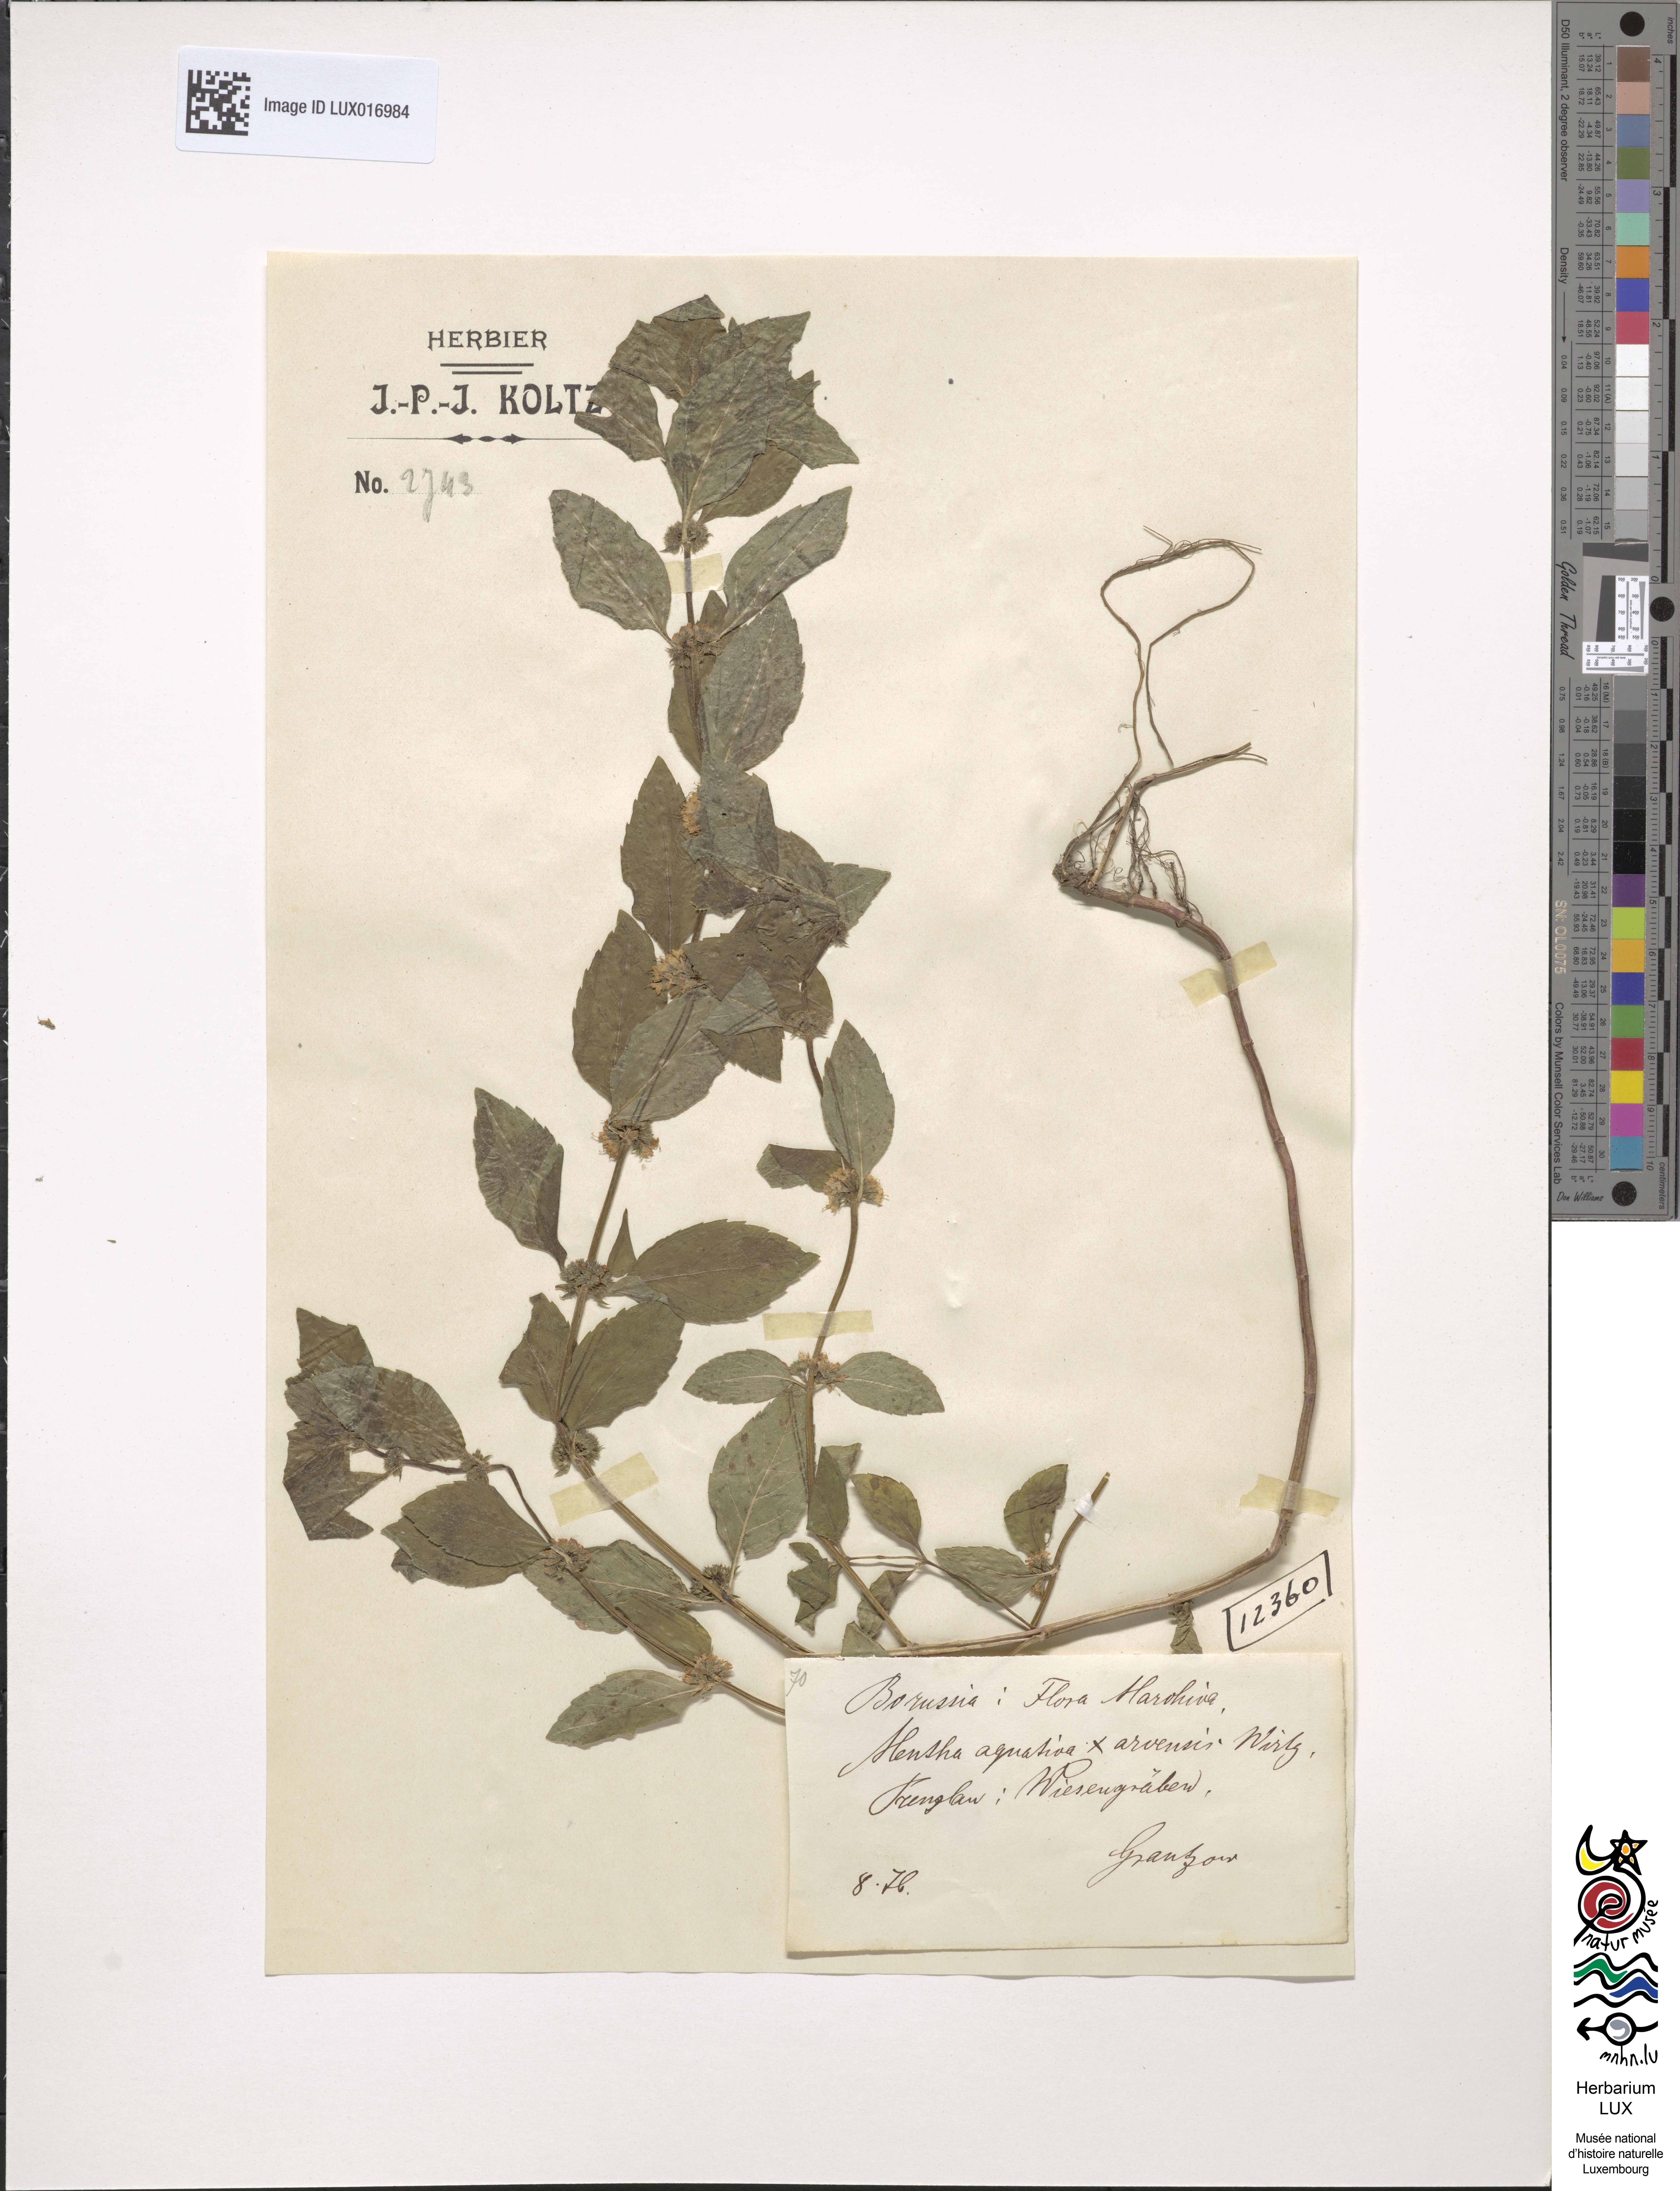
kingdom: Plantae
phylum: Tracheophyta
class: Magnoliopsida
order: Lamiales
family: Lamiaceae
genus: Mentha
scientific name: Mentha verticillata
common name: Mint
